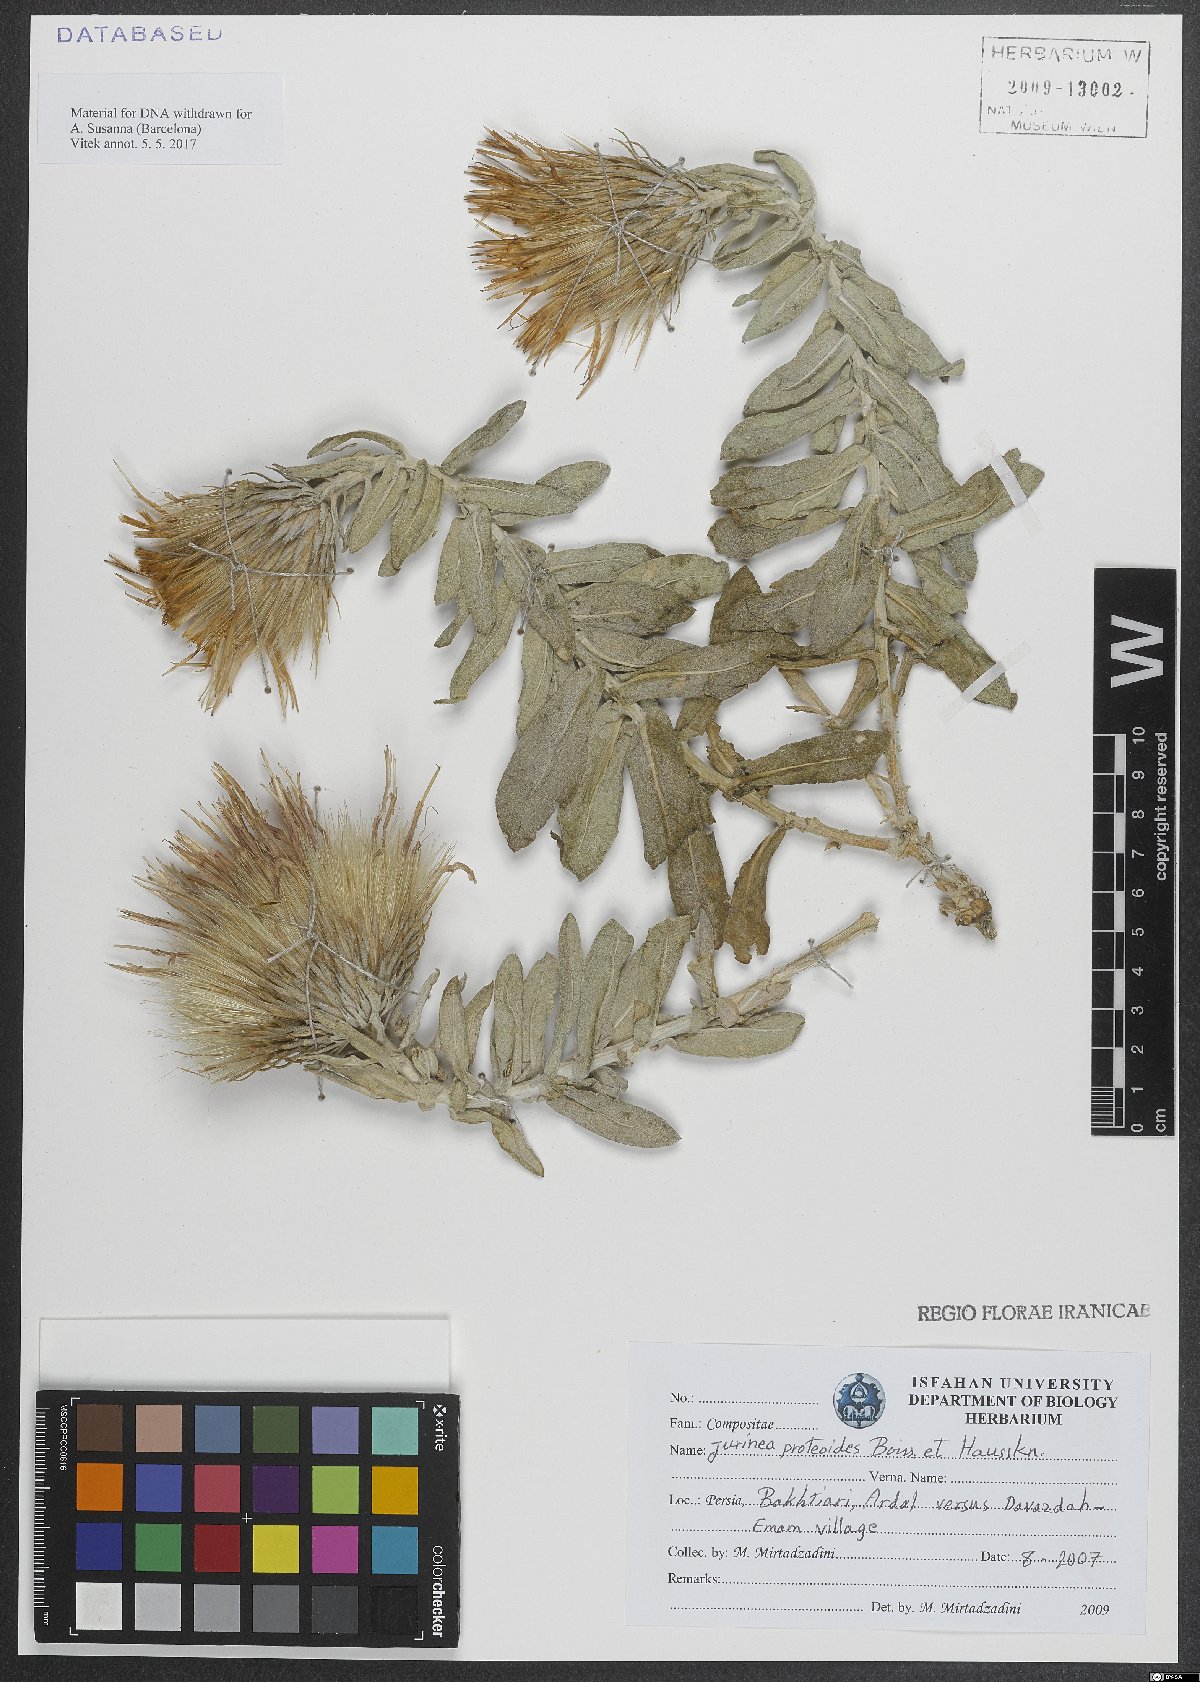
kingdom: Plantae
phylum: Tracheophyta
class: Magnoliopsida
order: Asterales
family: Asteraceae
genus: Jurinea
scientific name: Jurinea proteoides
